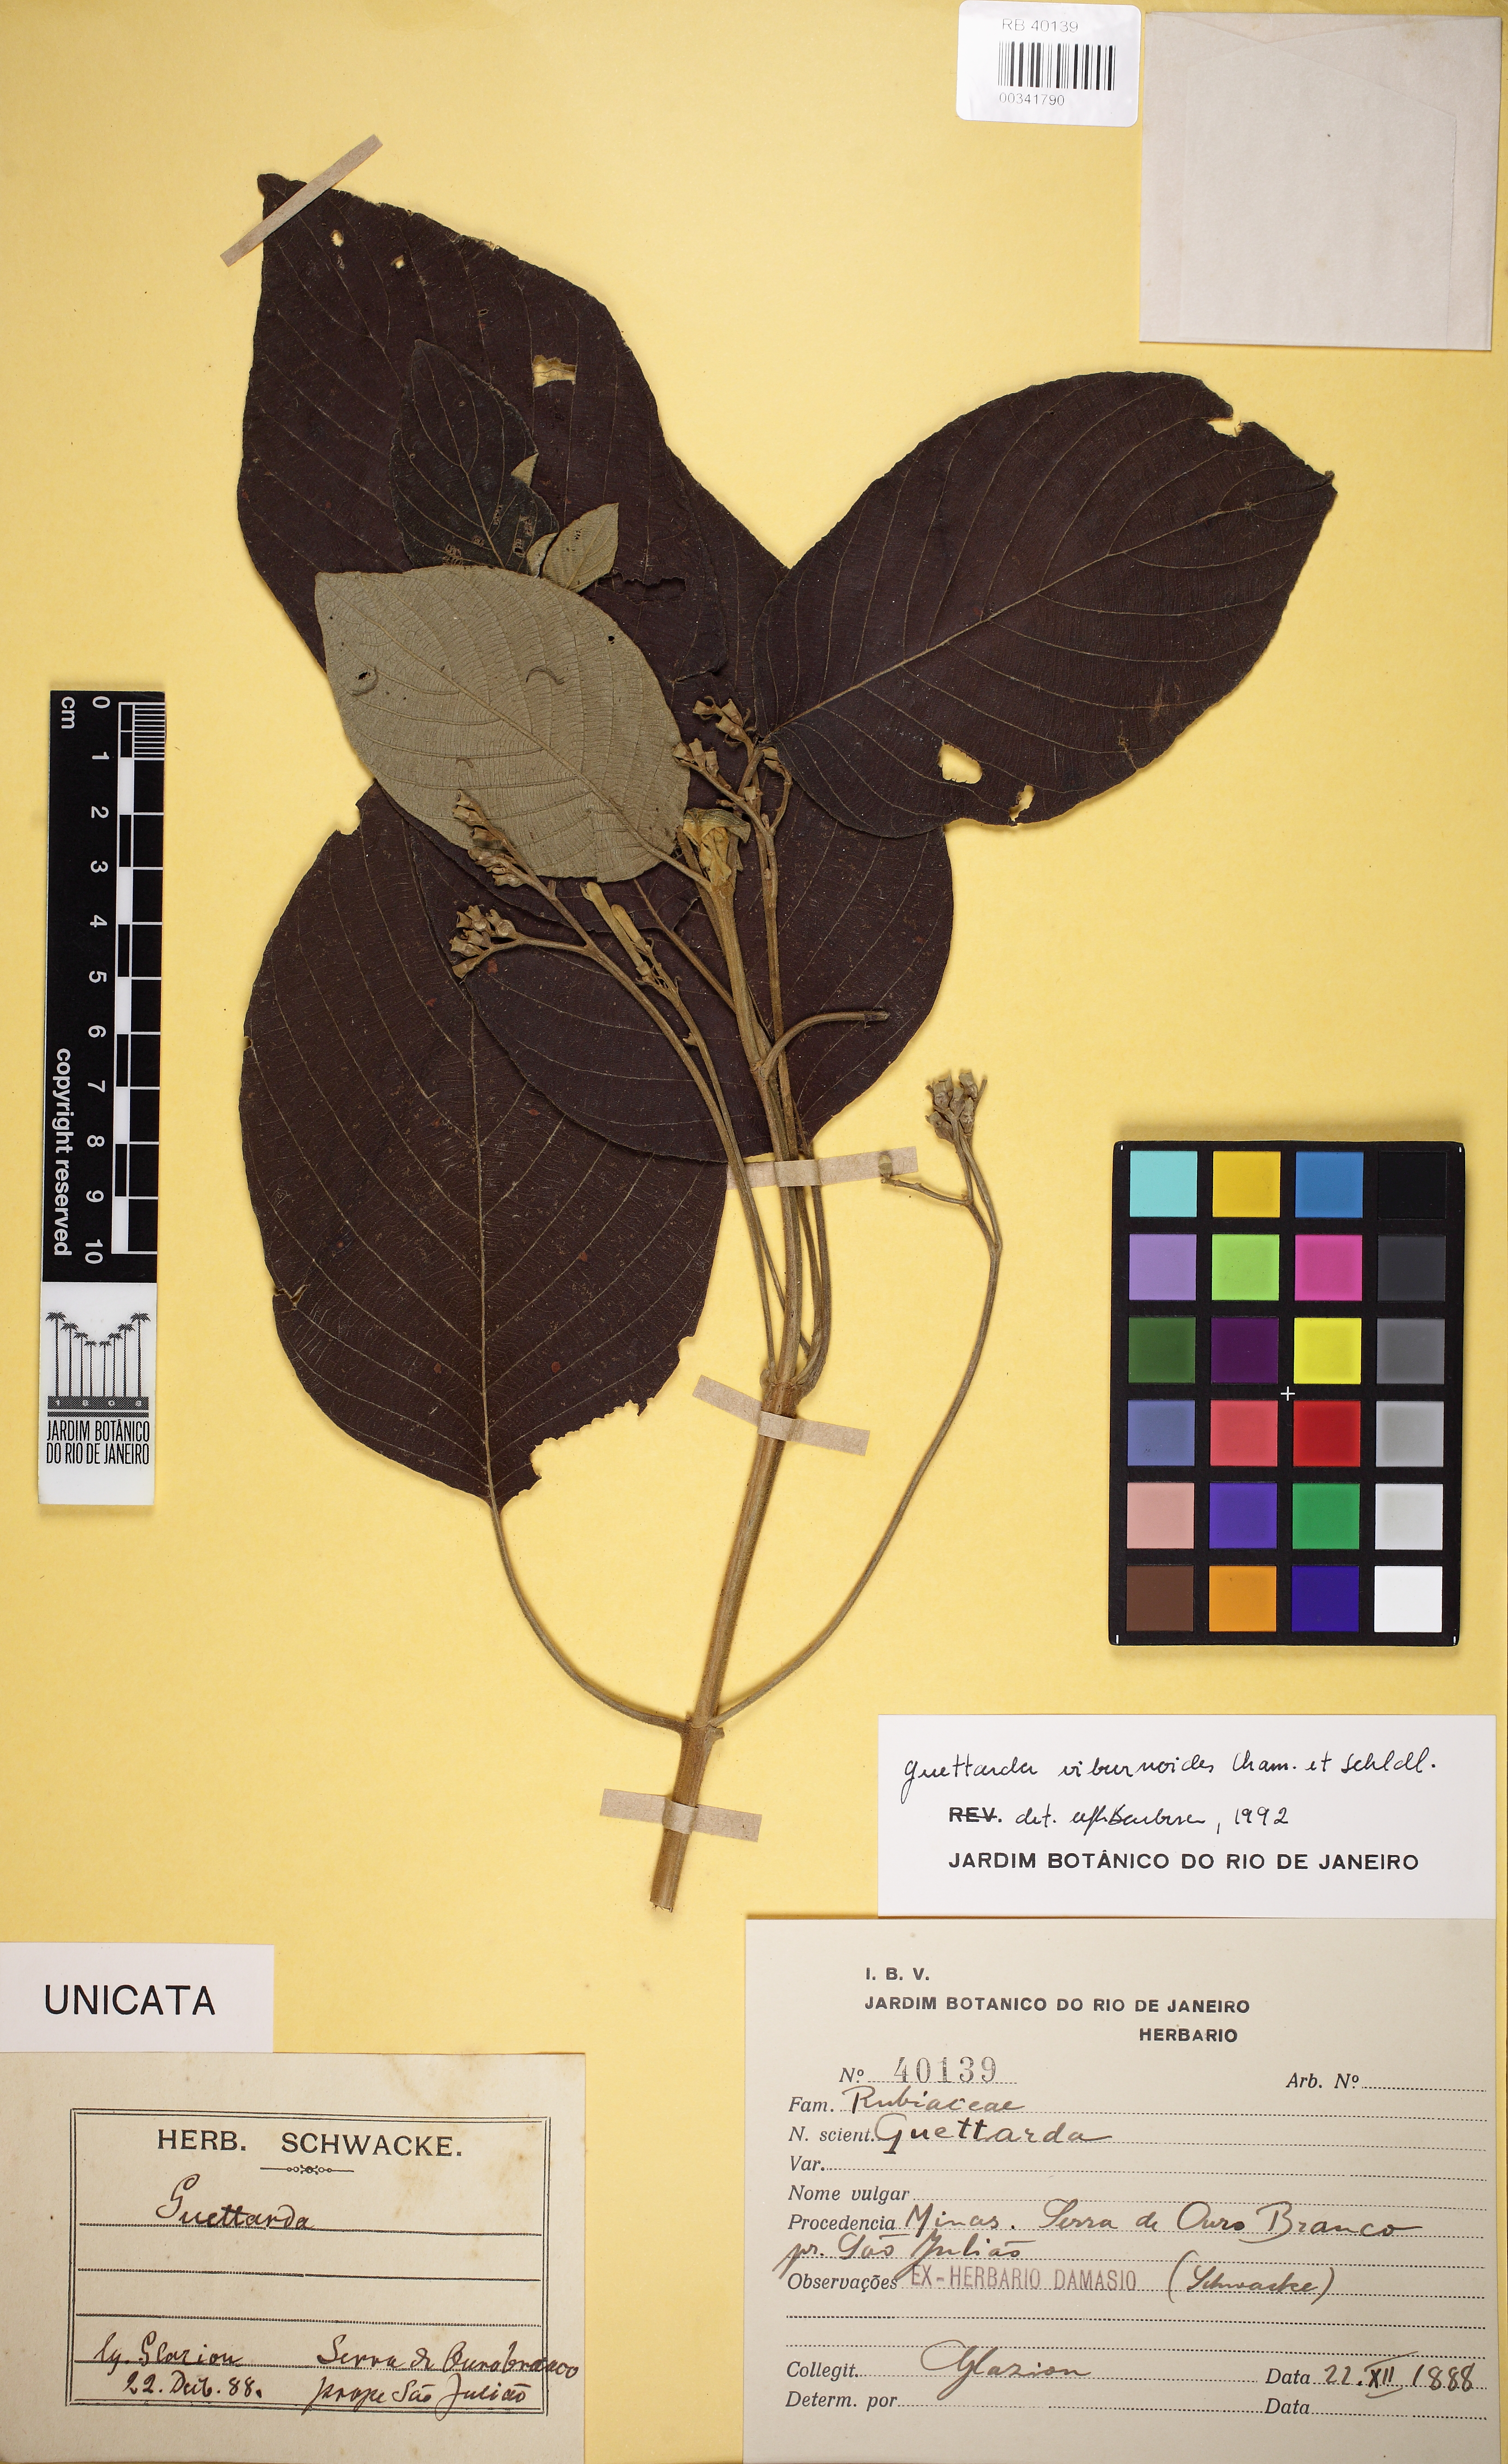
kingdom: Plantae
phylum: Tracheophyta
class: Magnoliopsida
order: Gentianales
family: Rubiaceae
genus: Guettarda
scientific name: Guettarda viburnoides
